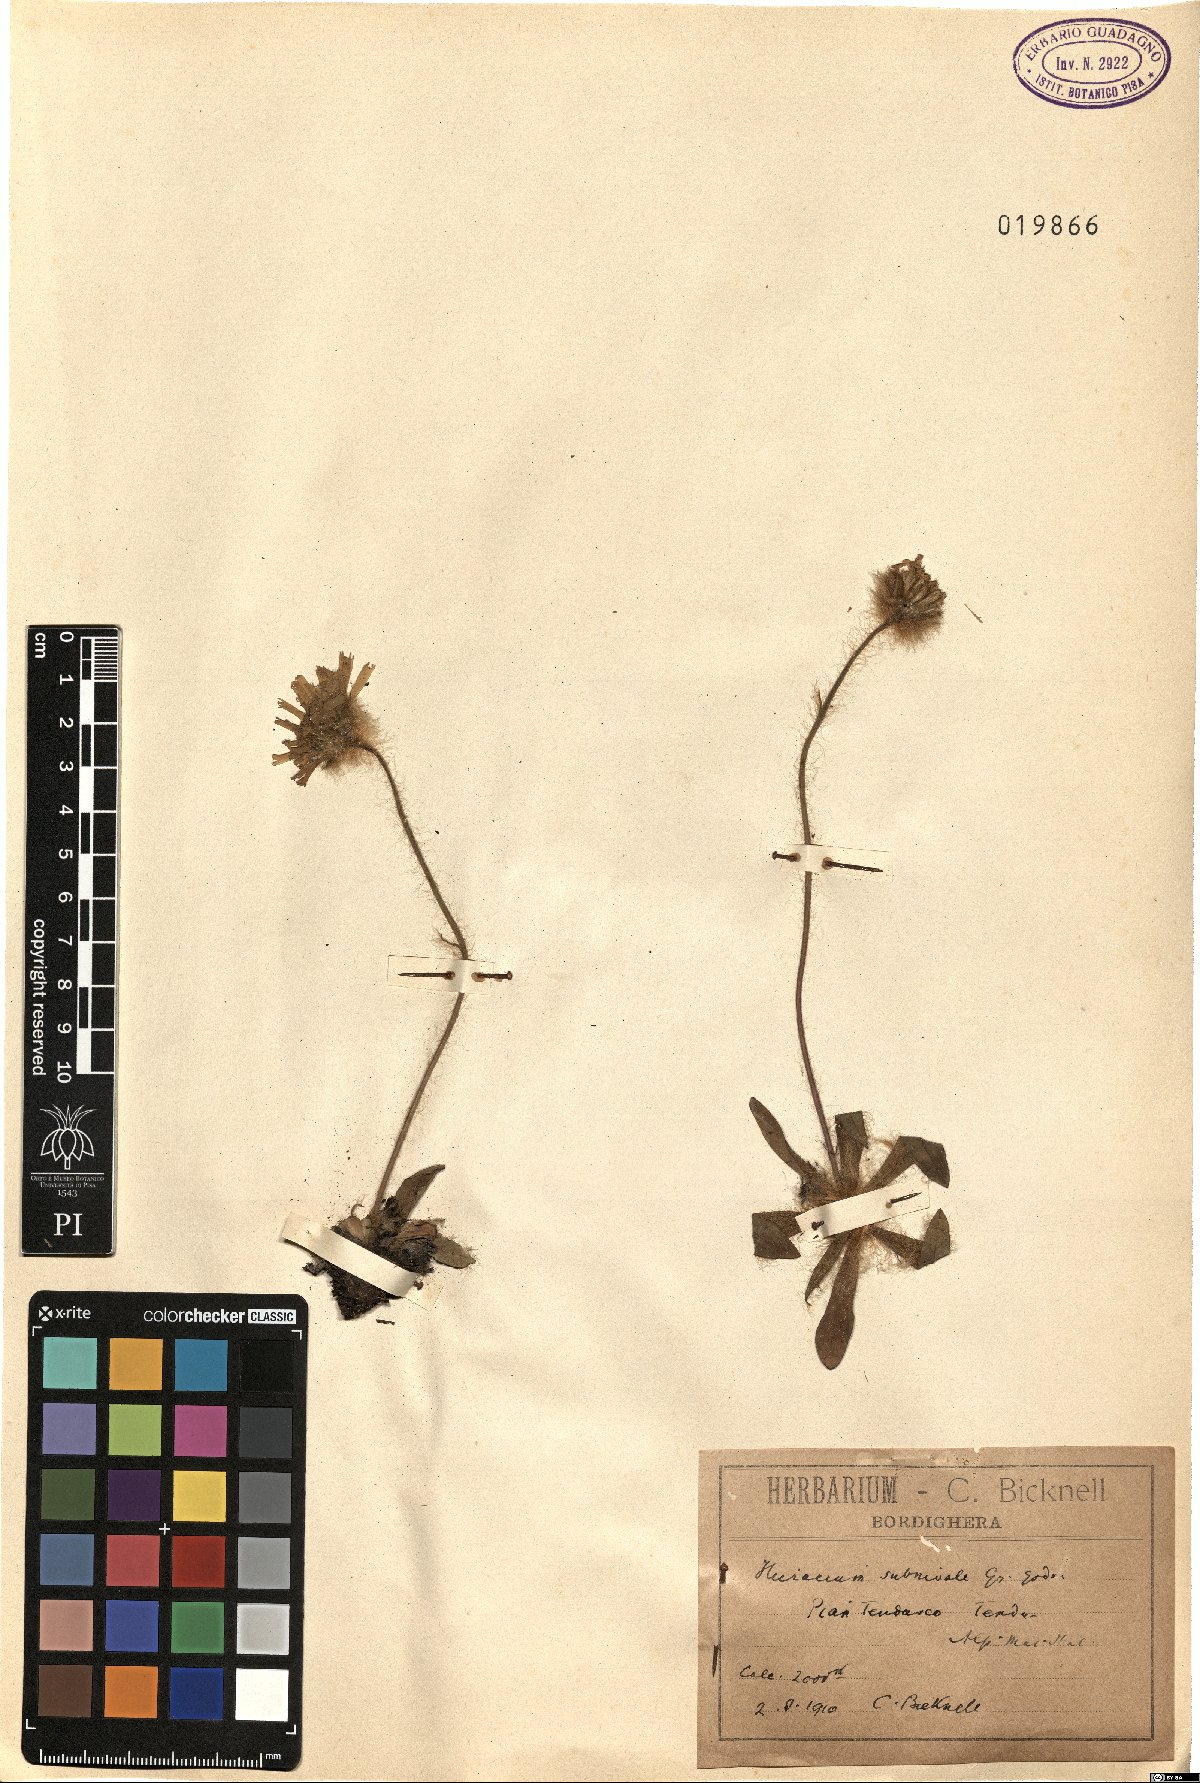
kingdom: Plantae
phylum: Tracheophyta
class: Magnoliopsida
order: Asterales
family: Asteraceae
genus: Hieracium
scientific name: Hieracium piliferum
